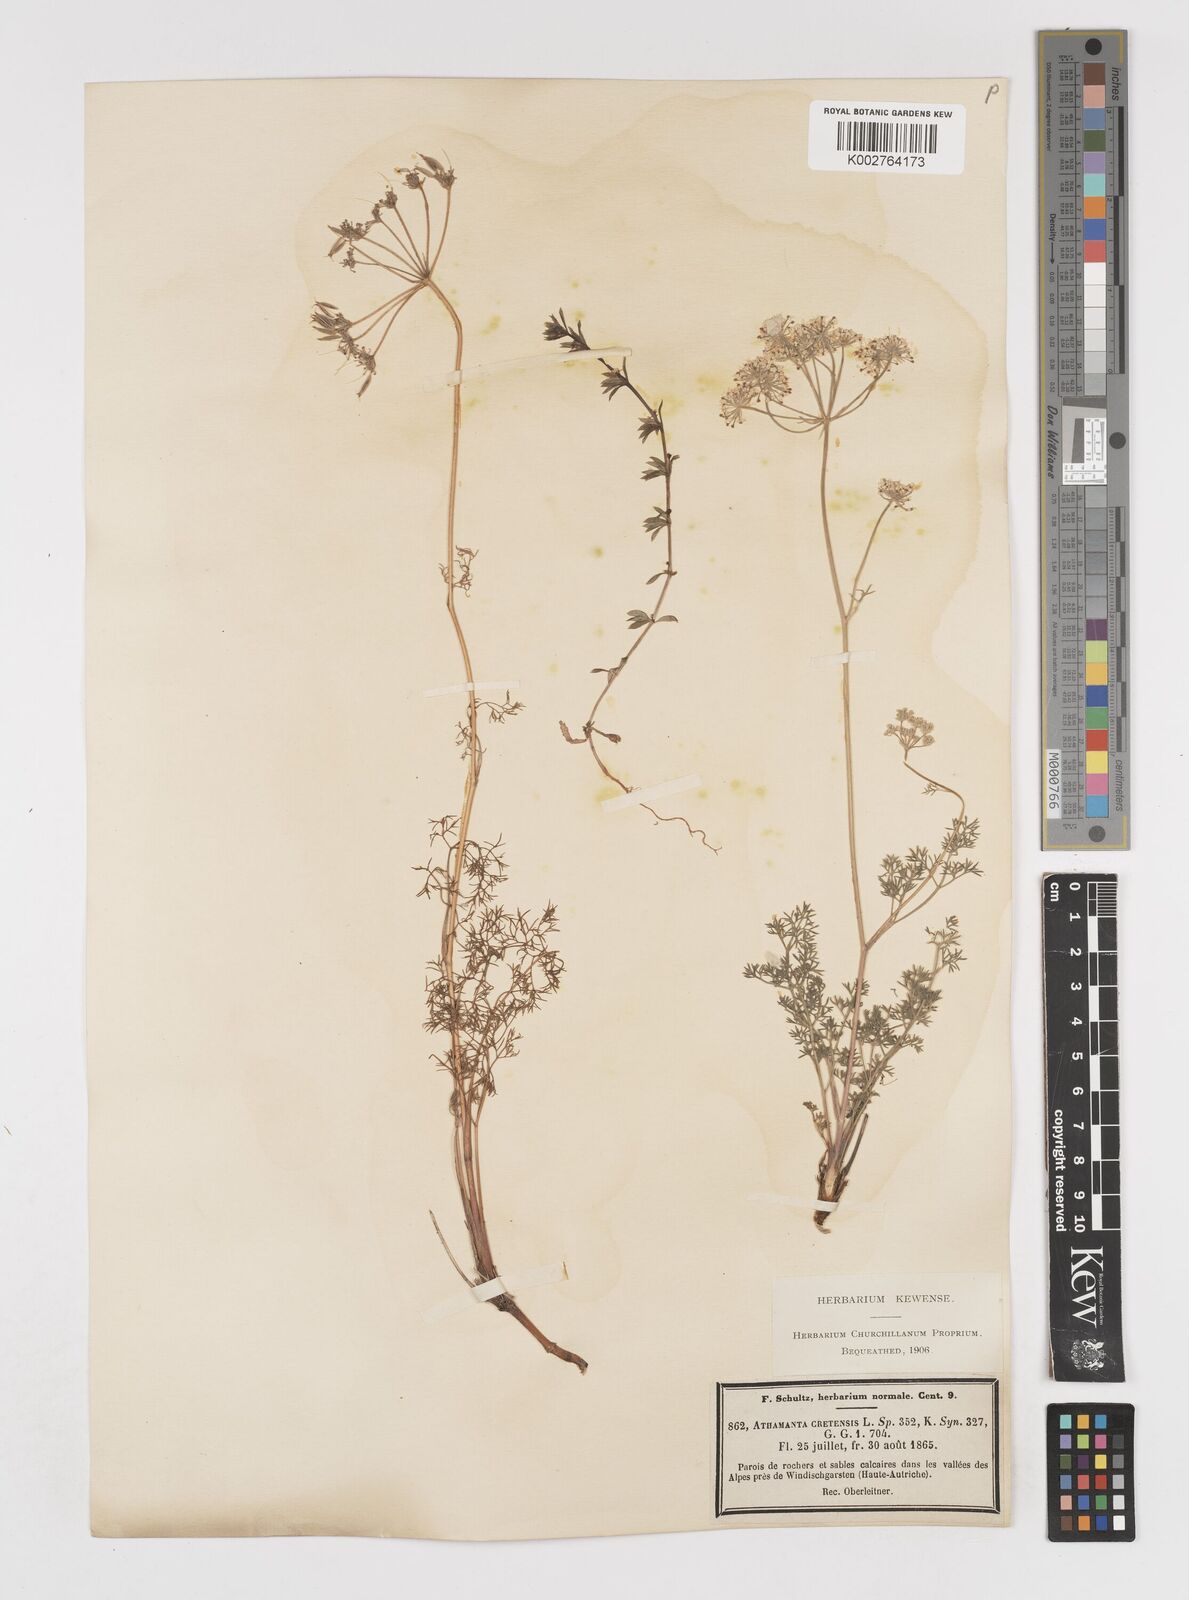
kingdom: Plantae
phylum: Tracheophyta
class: Magnoliopsida
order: Apiales
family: Apiaceae
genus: Athamanta
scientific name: Athamanta cretensis
